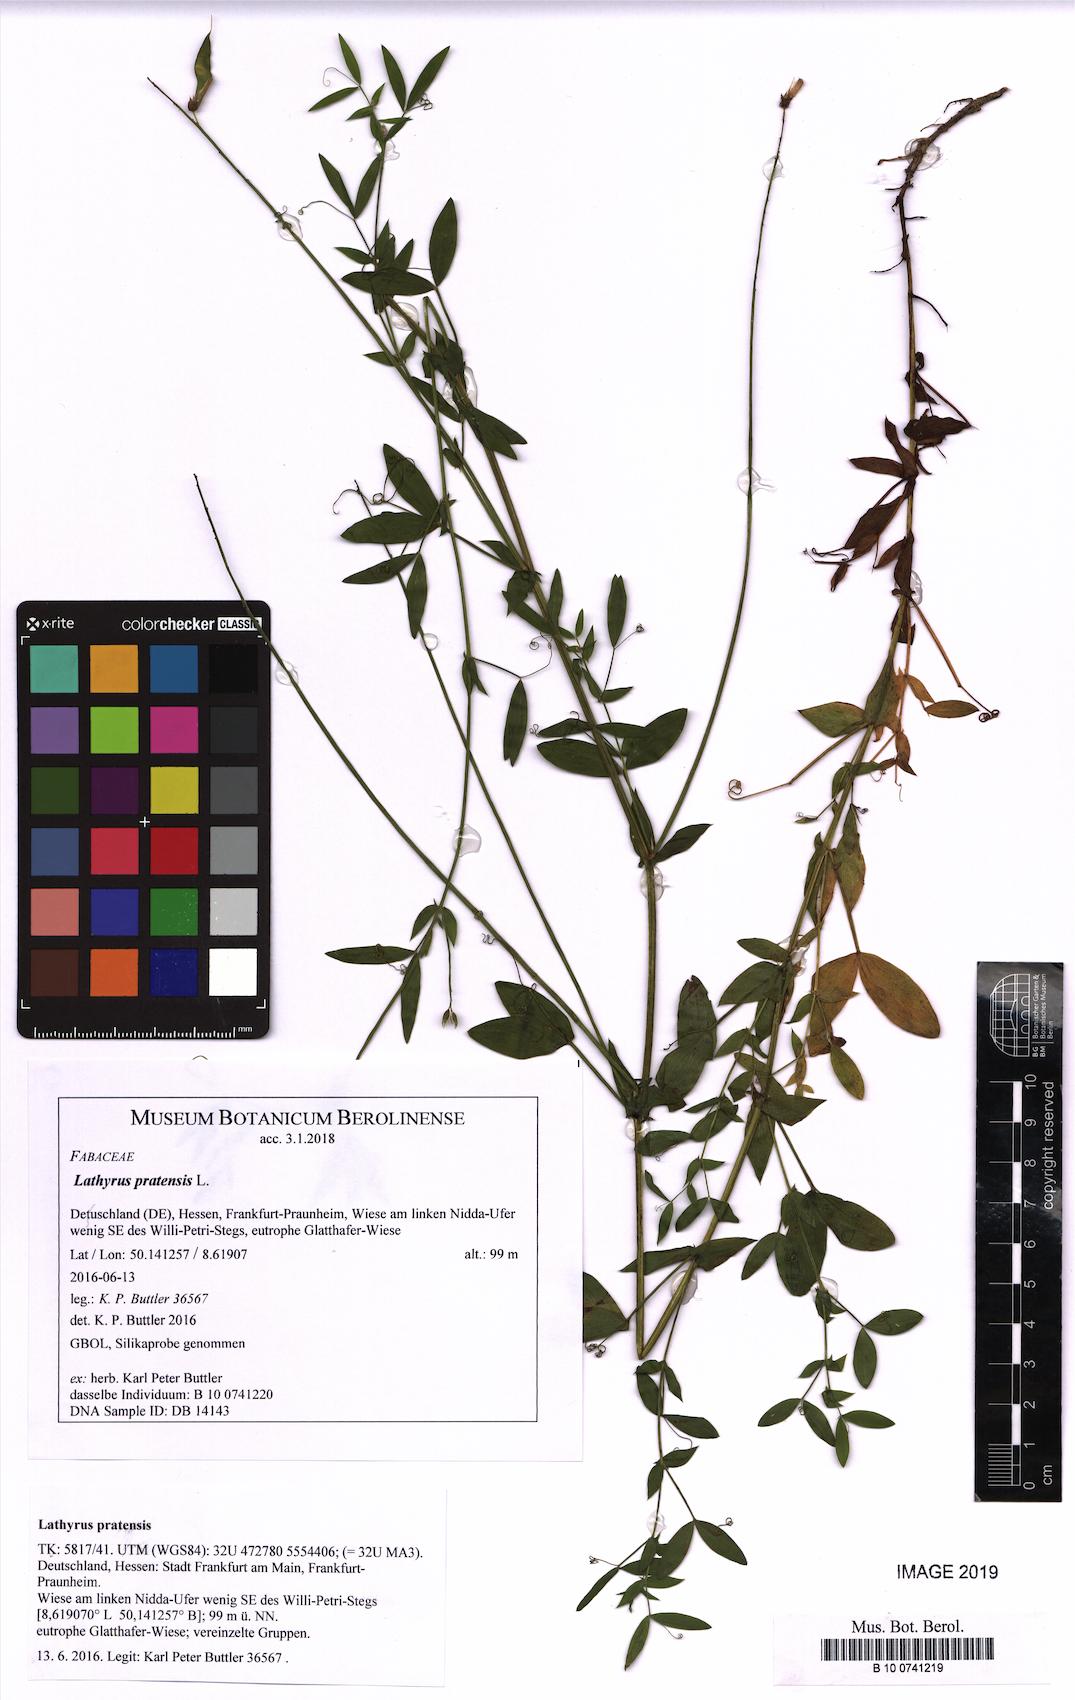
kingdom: Plantae
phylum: Tracheophyta
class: Magnoliopsida
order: Fabales
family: Fabaceae
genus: Lathyrus
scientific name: Lathyrus pratensis
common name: Meadow vetchling
